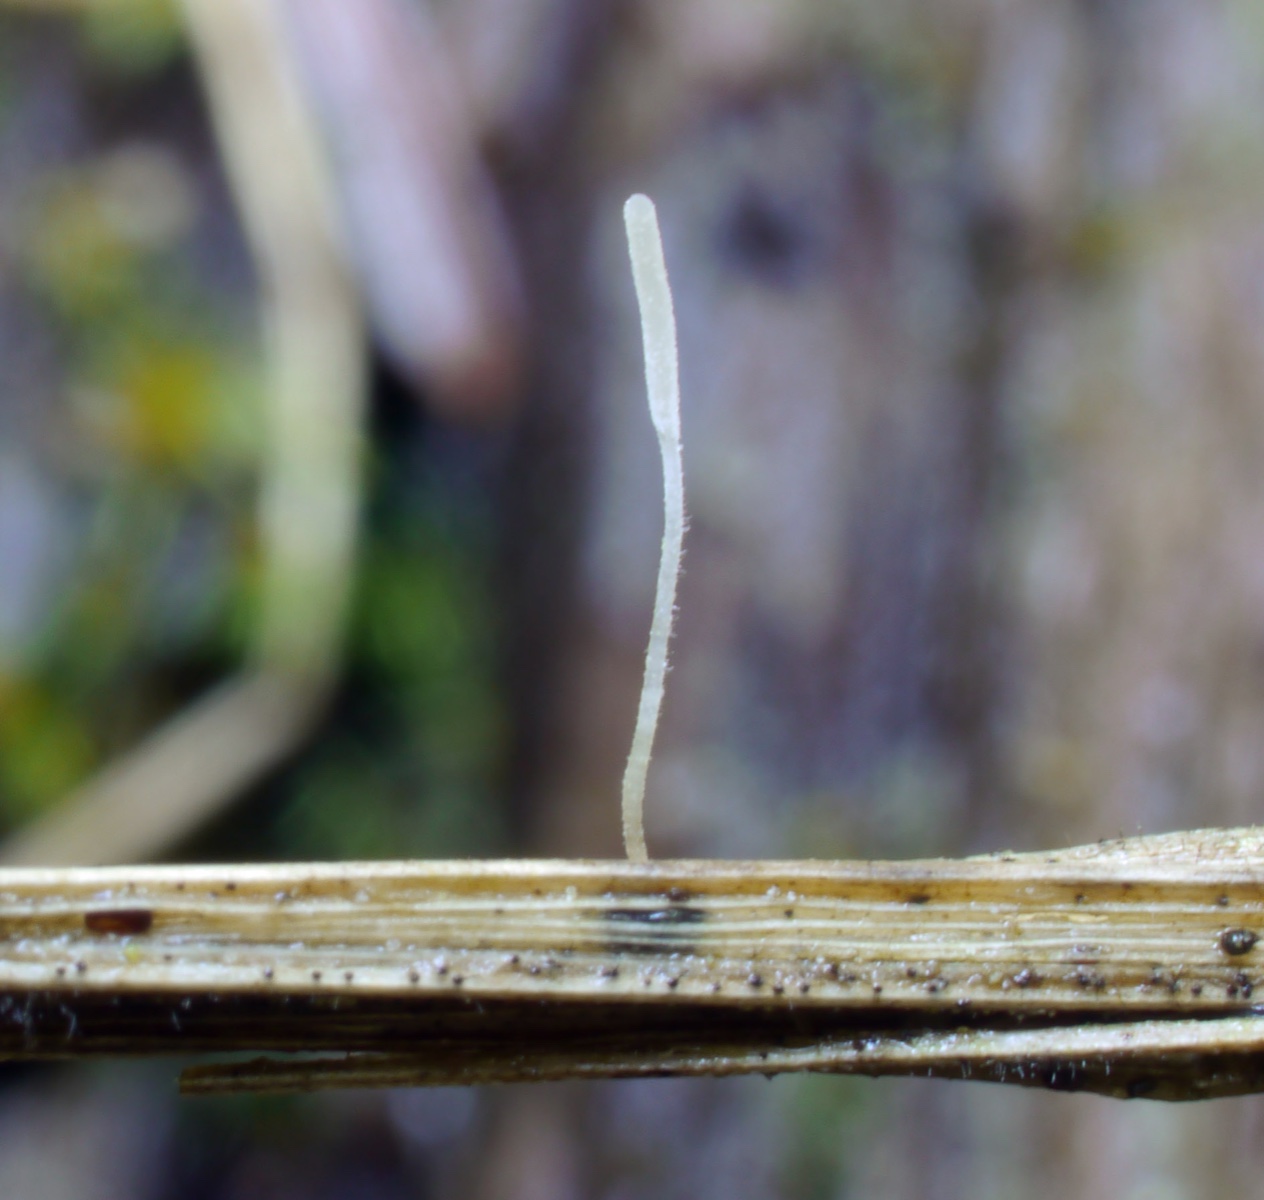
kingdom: Fungi
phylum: Basidiomycota
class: Agaricomycetes
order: Agaricales
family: Typhulaceae
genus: Typhula
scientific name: Typhula berthieri
